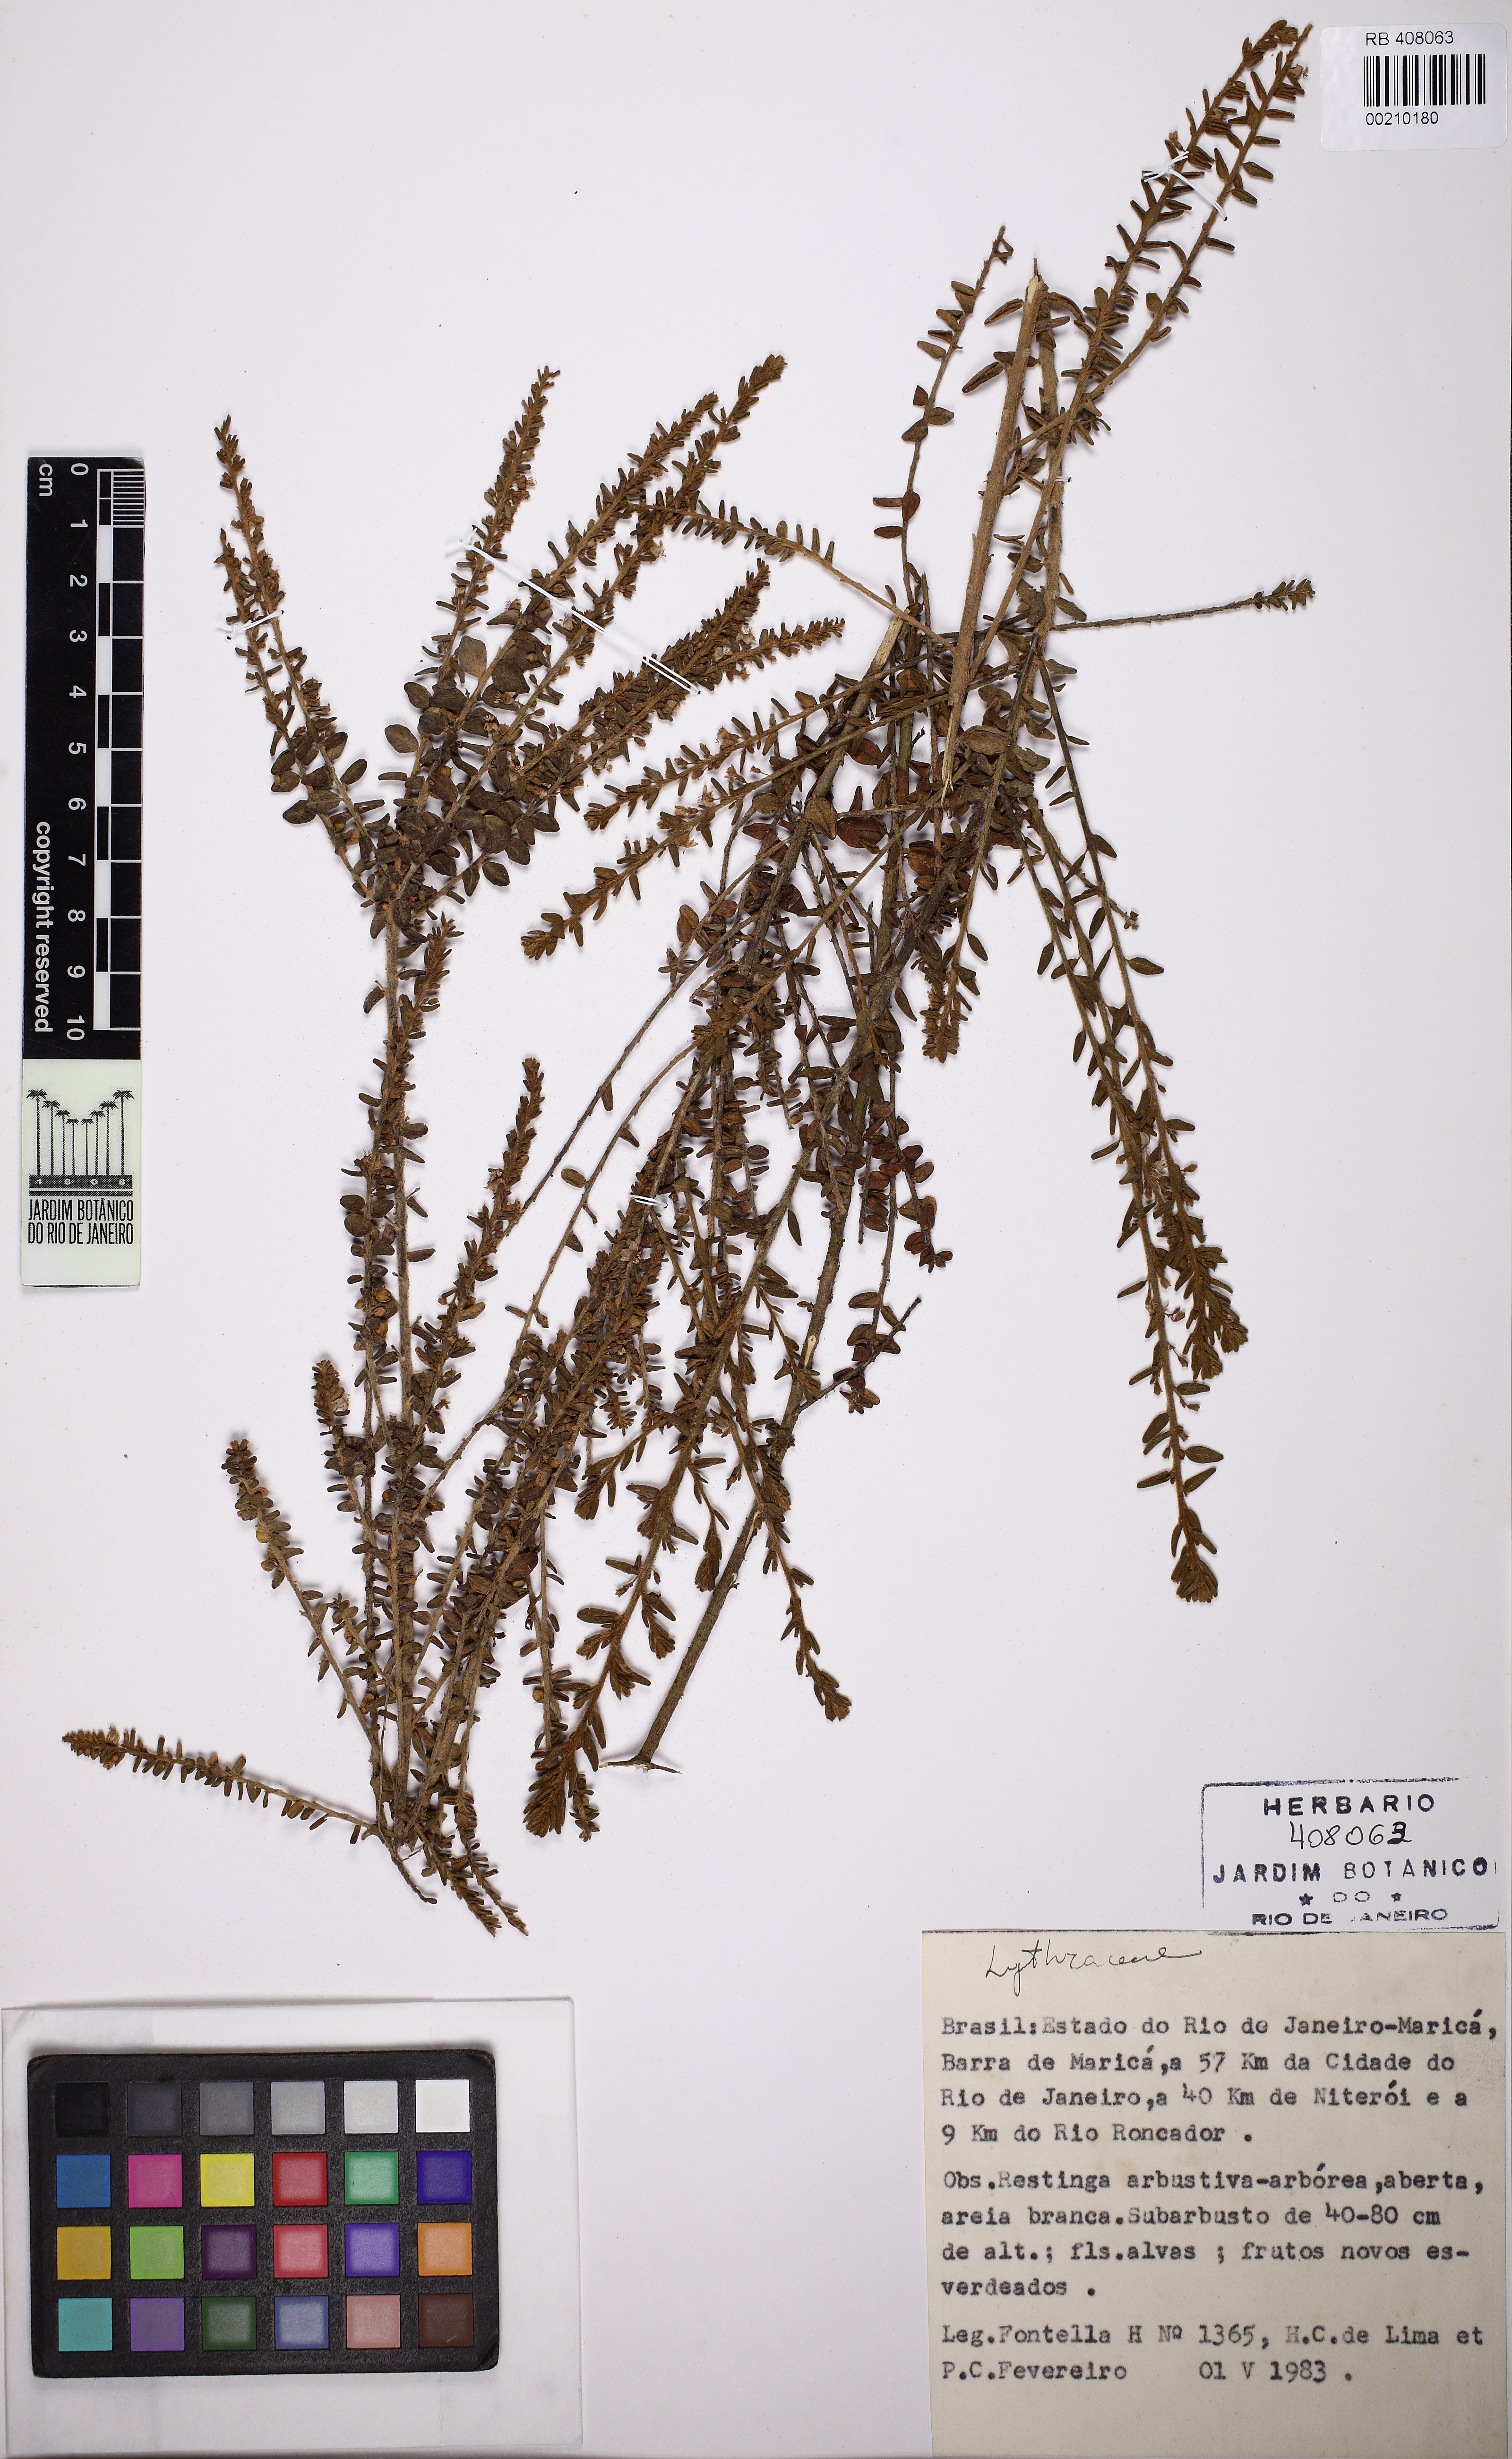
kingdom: Plantae
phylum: Tracheophyta
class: Magnoliopsida
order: Myrtales
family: Lythraceae
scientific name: Lythraceae
